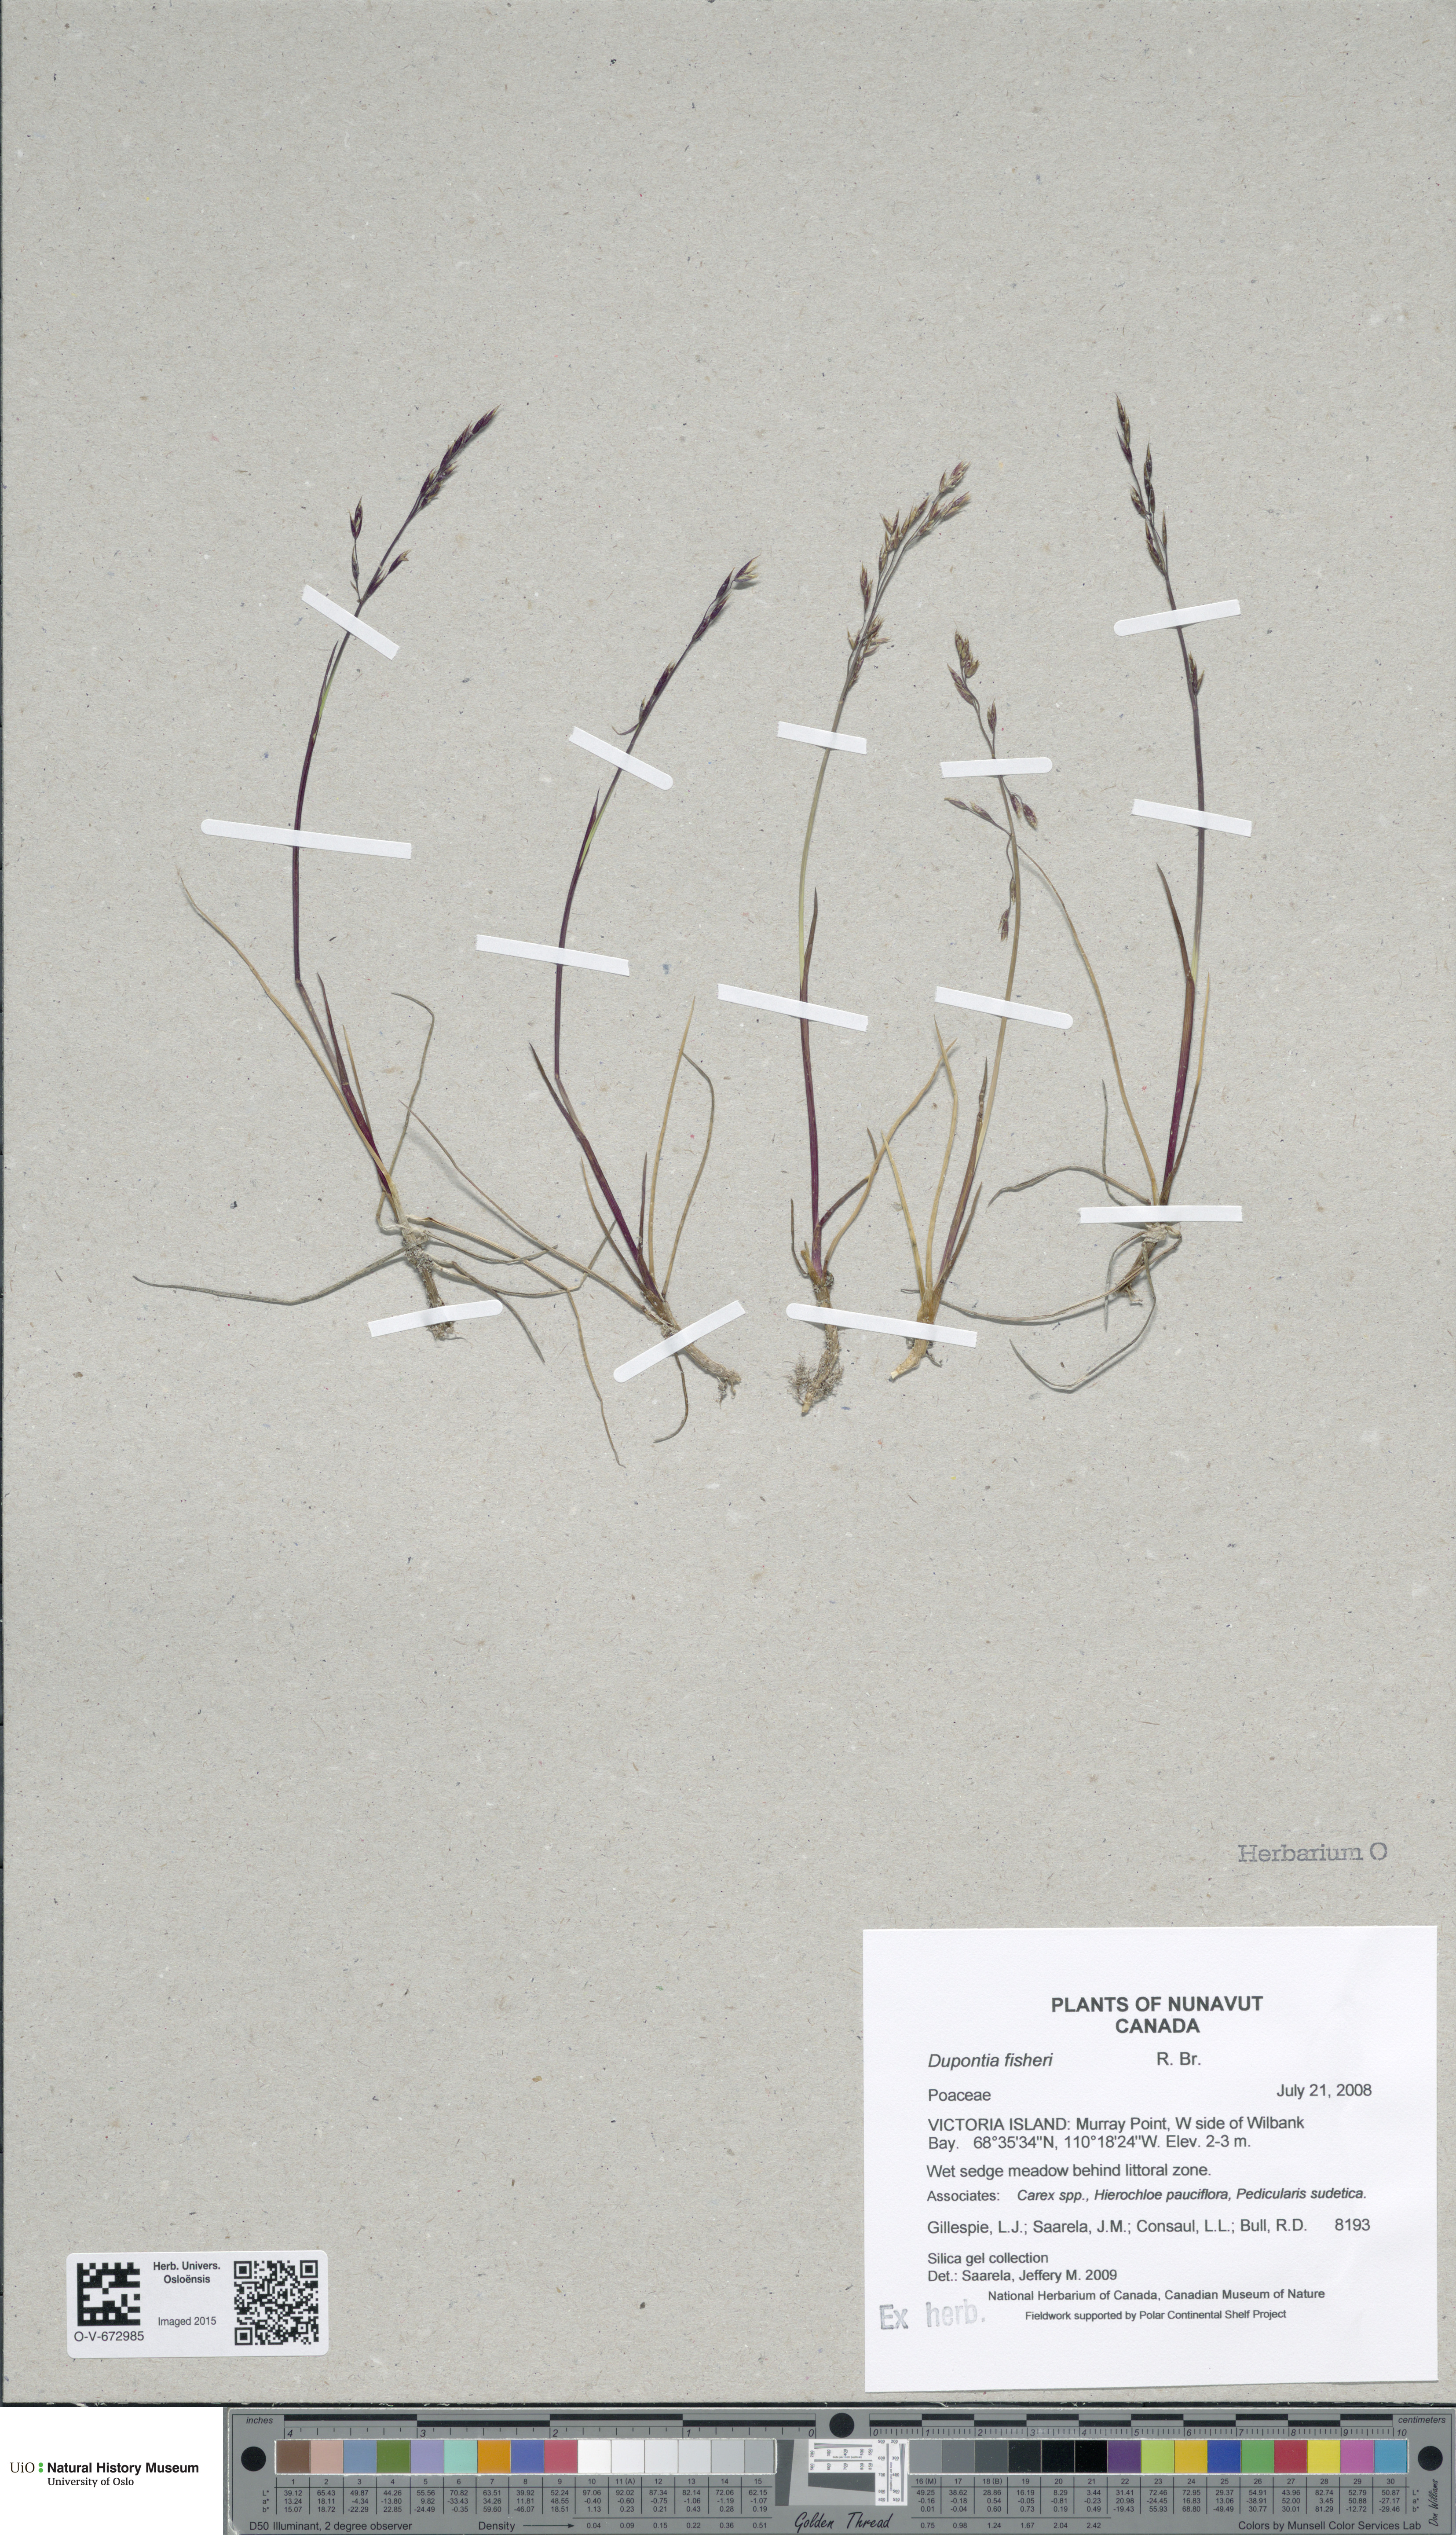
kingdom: Plantae
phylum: Tracheophyta
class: Liliopsida
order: Poales
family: Poaceae
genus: Dupontia
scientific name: Dupontia fisheri
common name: Tundra grass
